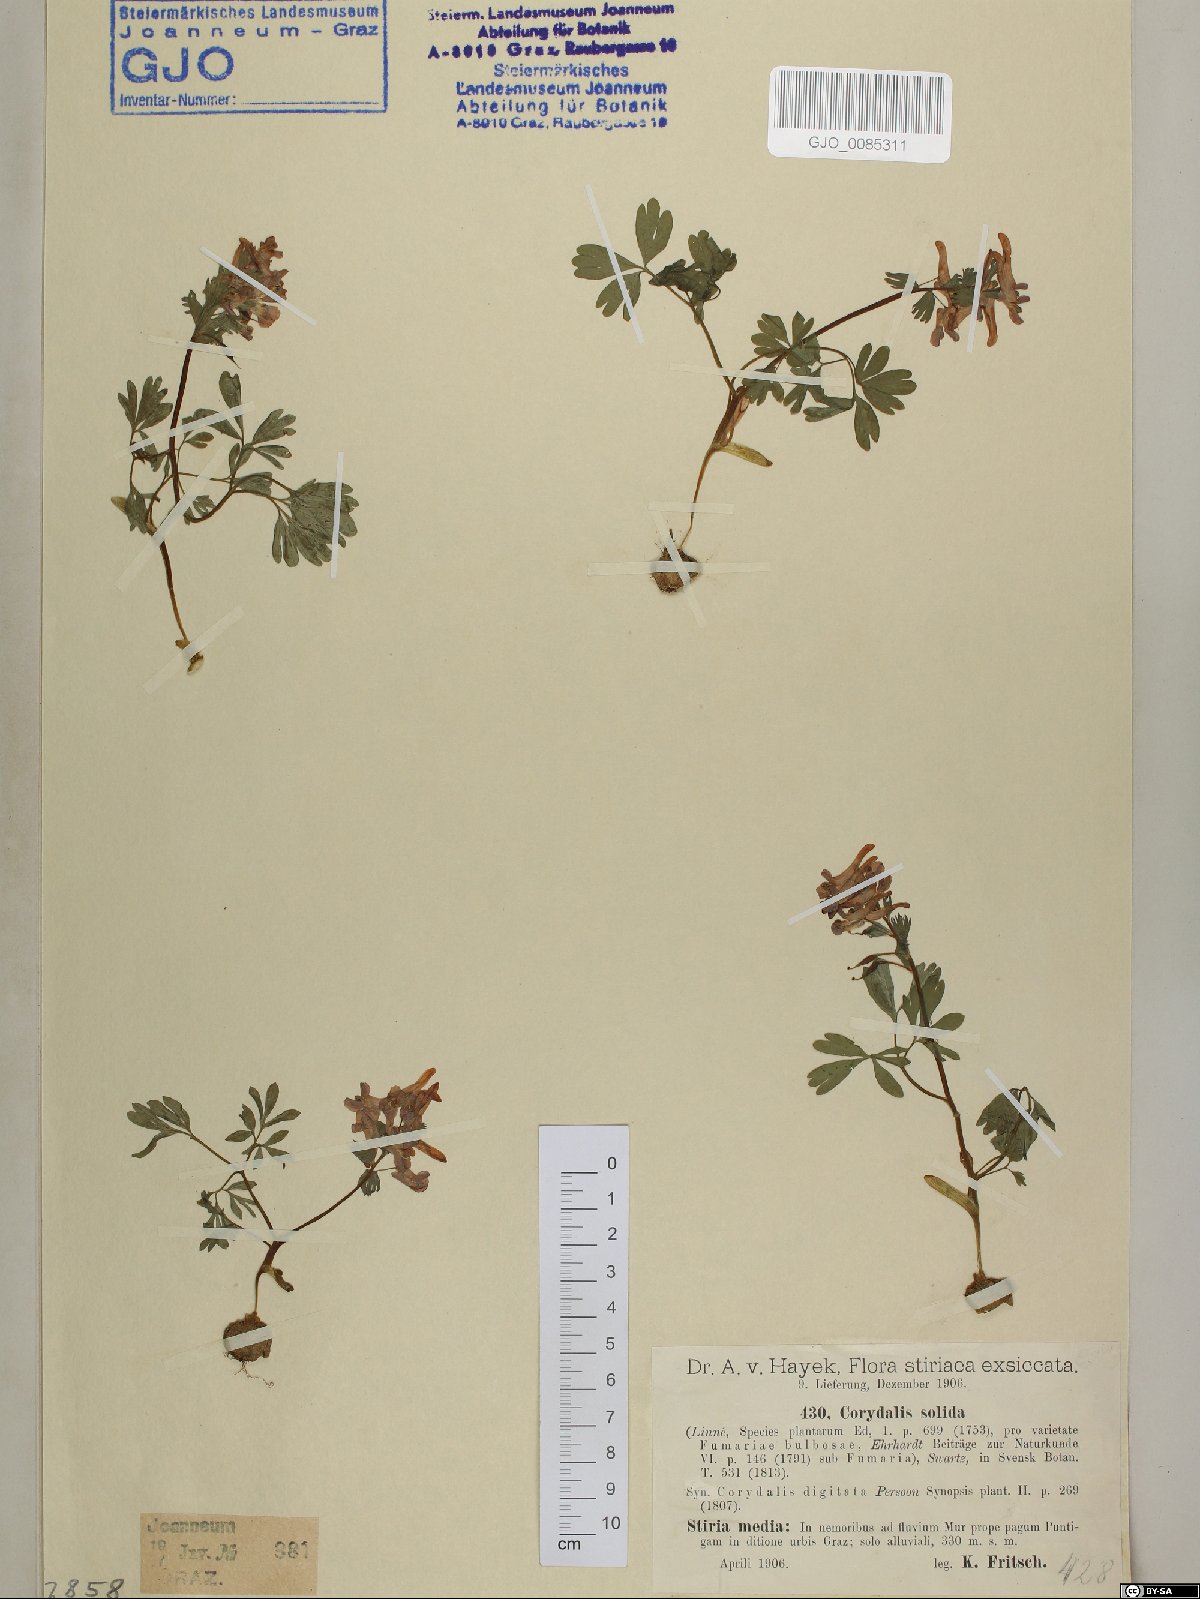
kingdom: Plantae
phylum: Tracheophyta
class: Magnoliopsida
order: Ranunculales
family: Papaveraceae
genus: Corydalis
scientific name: Corydalis solida
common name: Bird-in-a-bush
